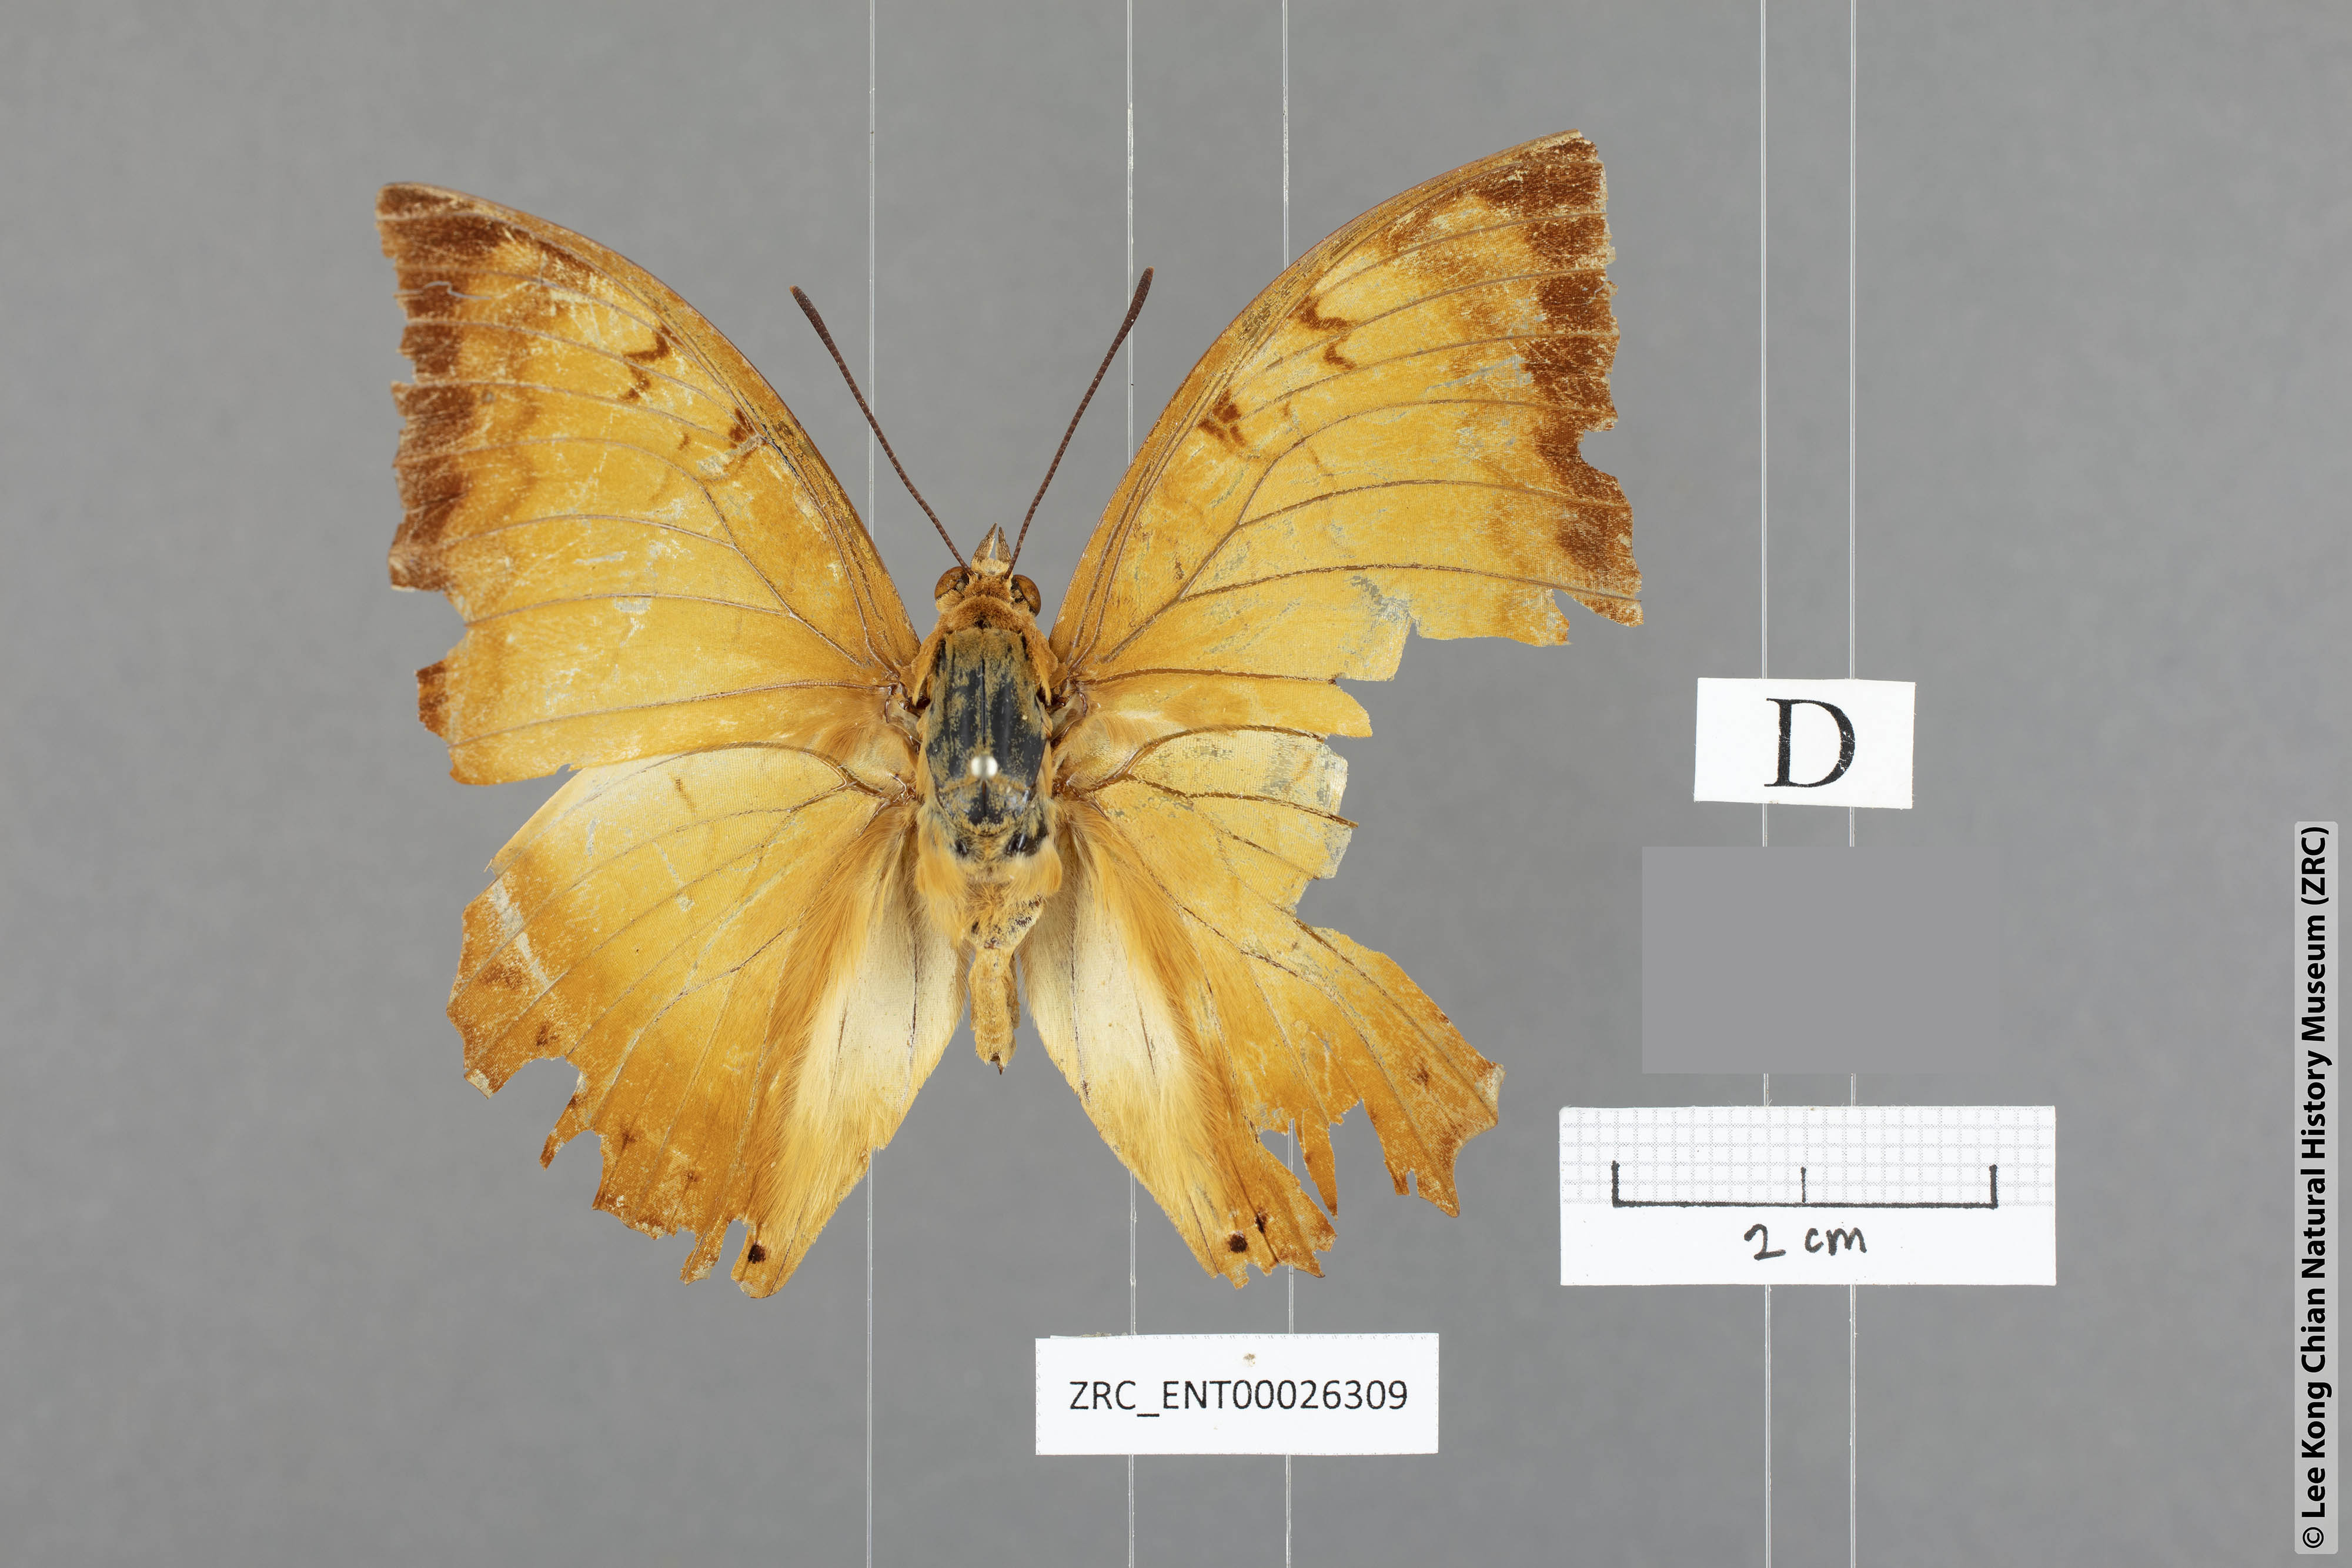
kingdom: Animalia
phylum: Arthropoda
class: Insecta
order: Lepidoptera
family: Nymphalidae
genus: Charaxes
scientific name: Charaxes distanti
